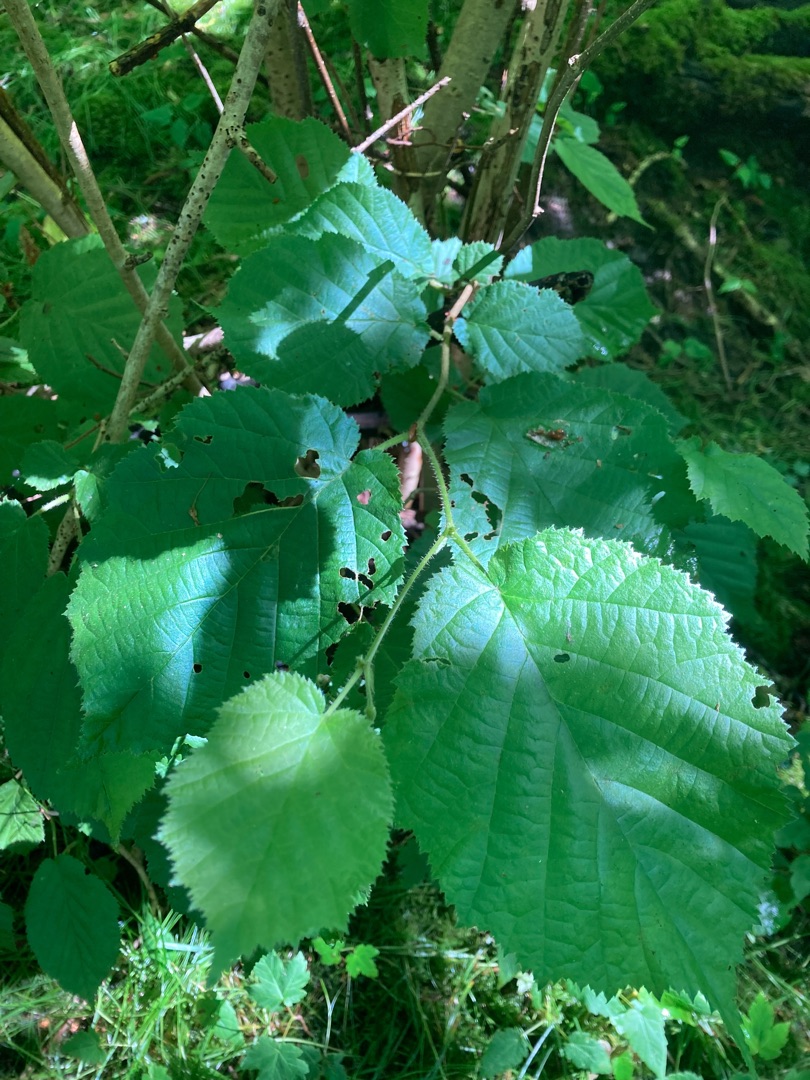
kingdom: Plantae
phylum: Tracheophyta
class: Magnoliopsida
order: Fagales
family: Betulaceae
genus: Corylus
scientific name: Corylus avellana
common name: Hassel
